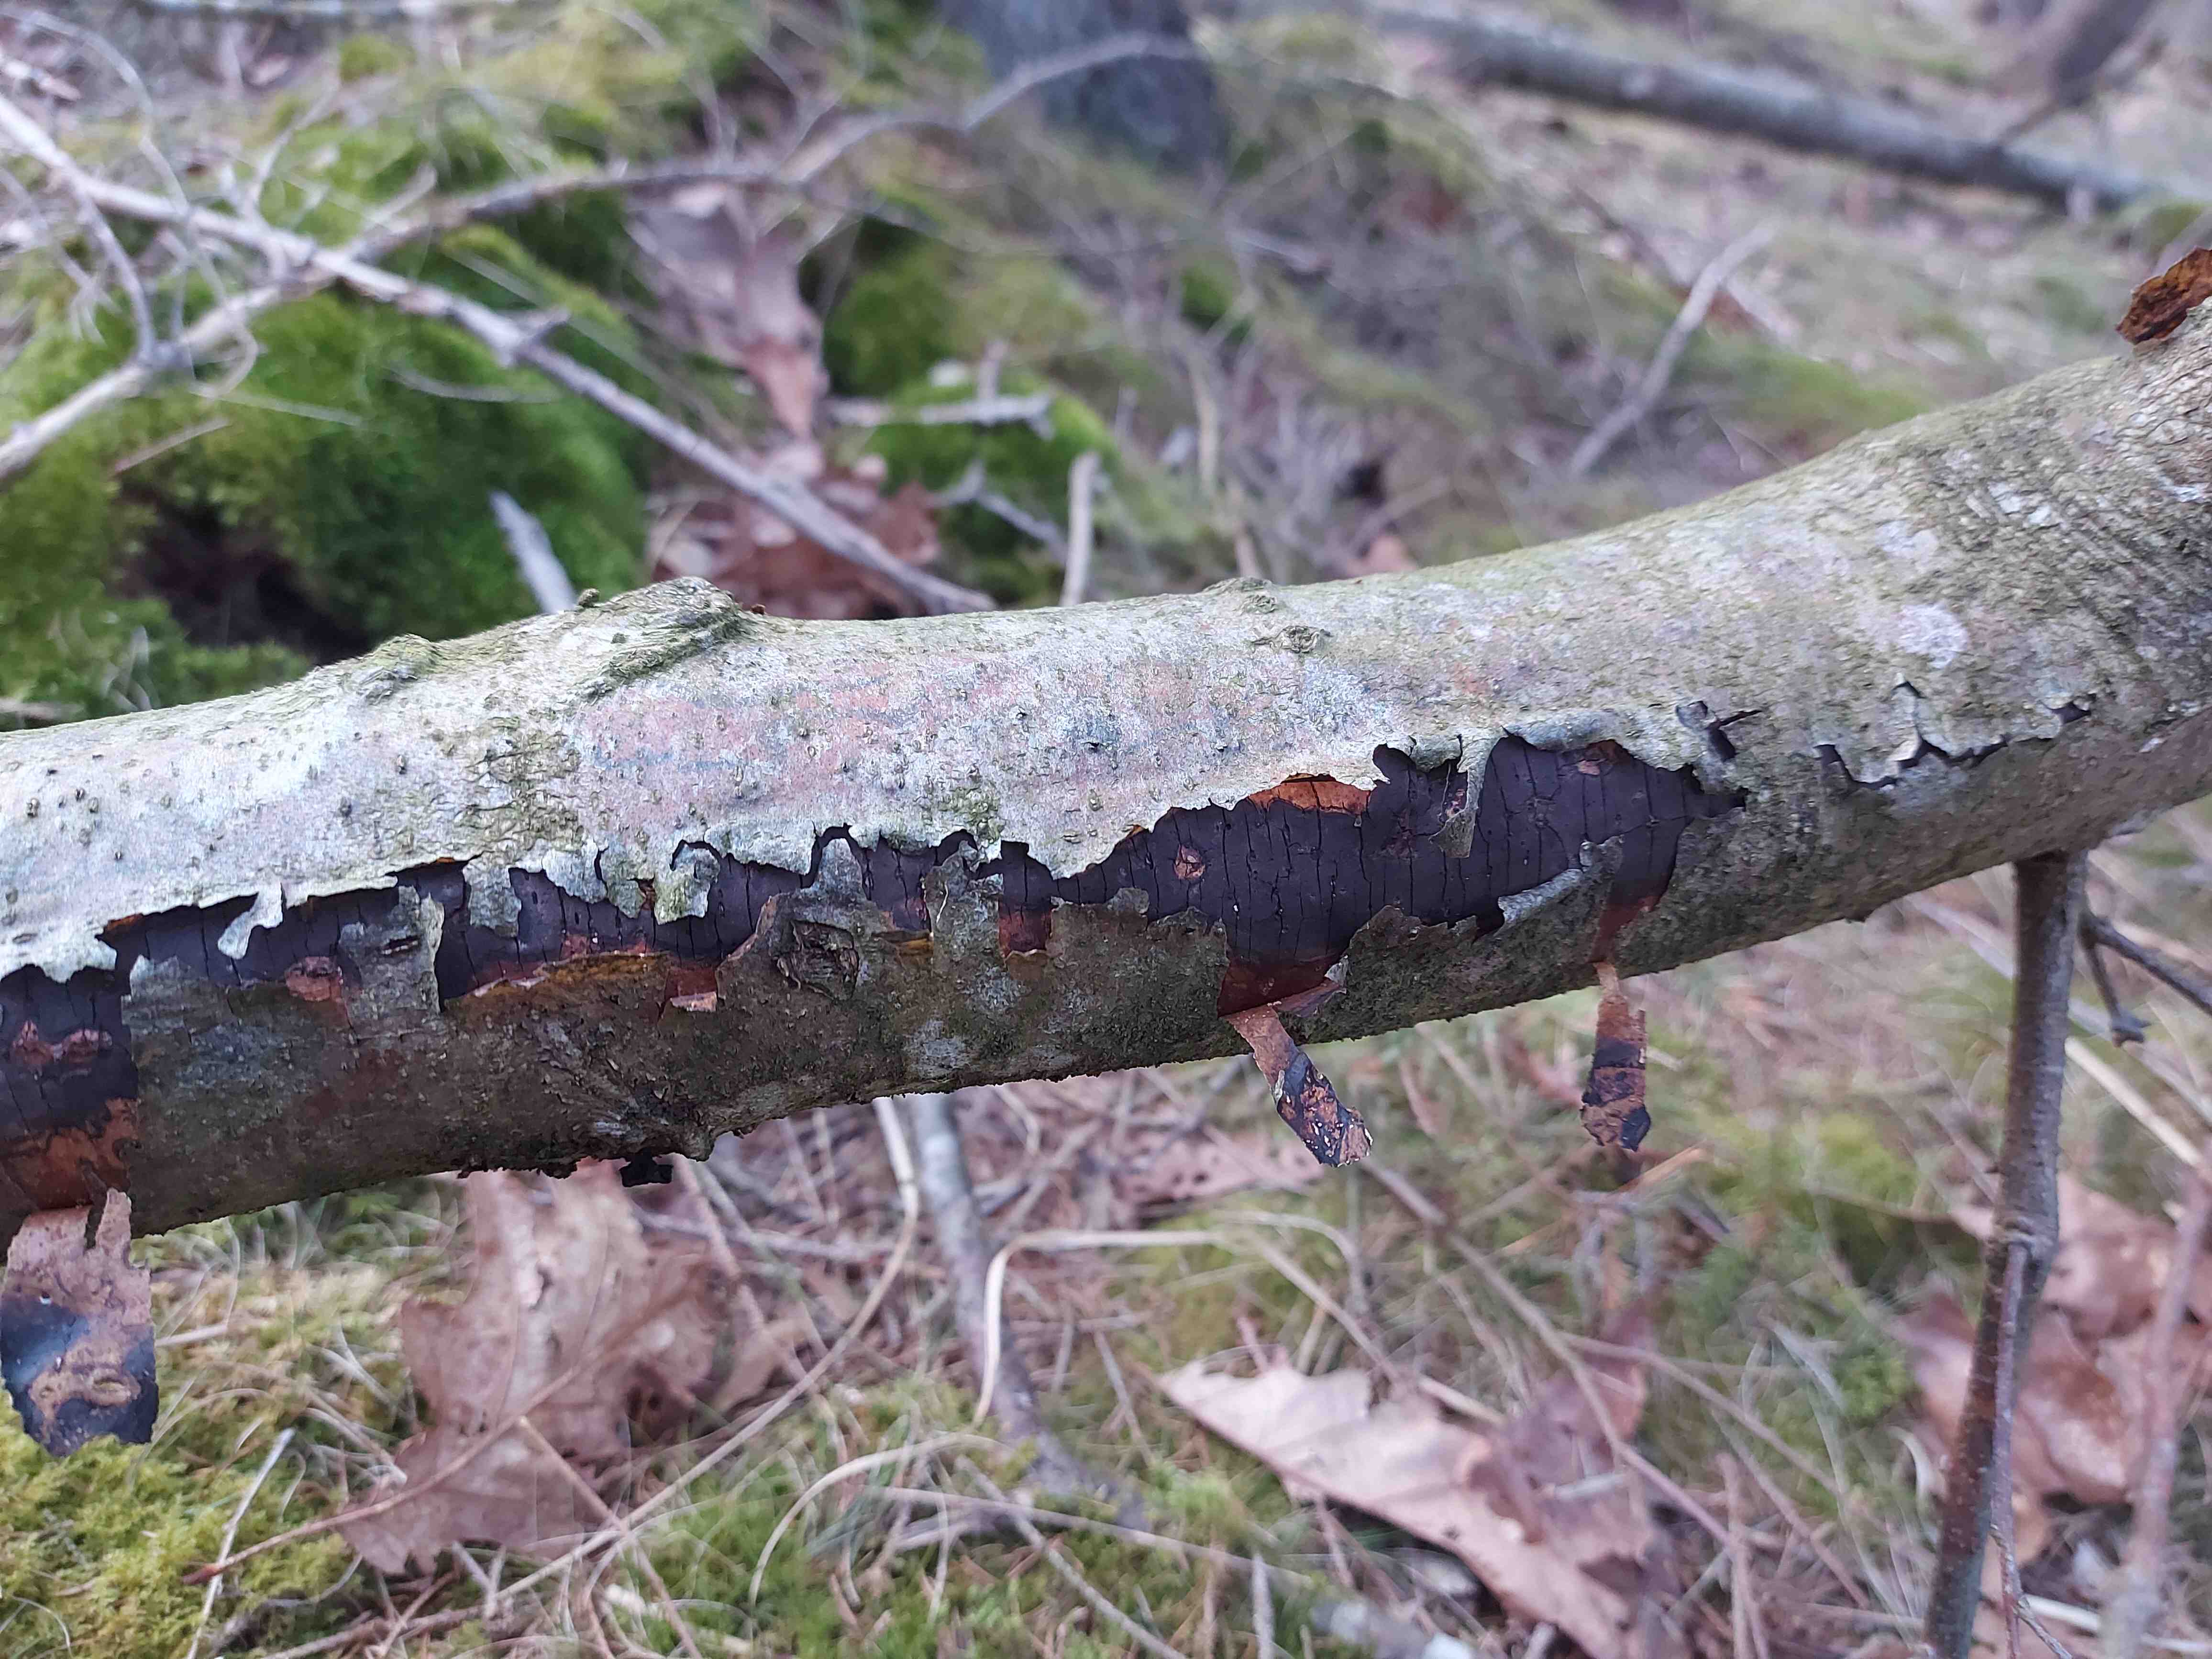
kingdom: Fungi
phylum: Ascomycota
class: Sordariomycetes
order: Xylariales
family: Diatrypaceae
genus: Diatrype
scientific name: Diatrype
